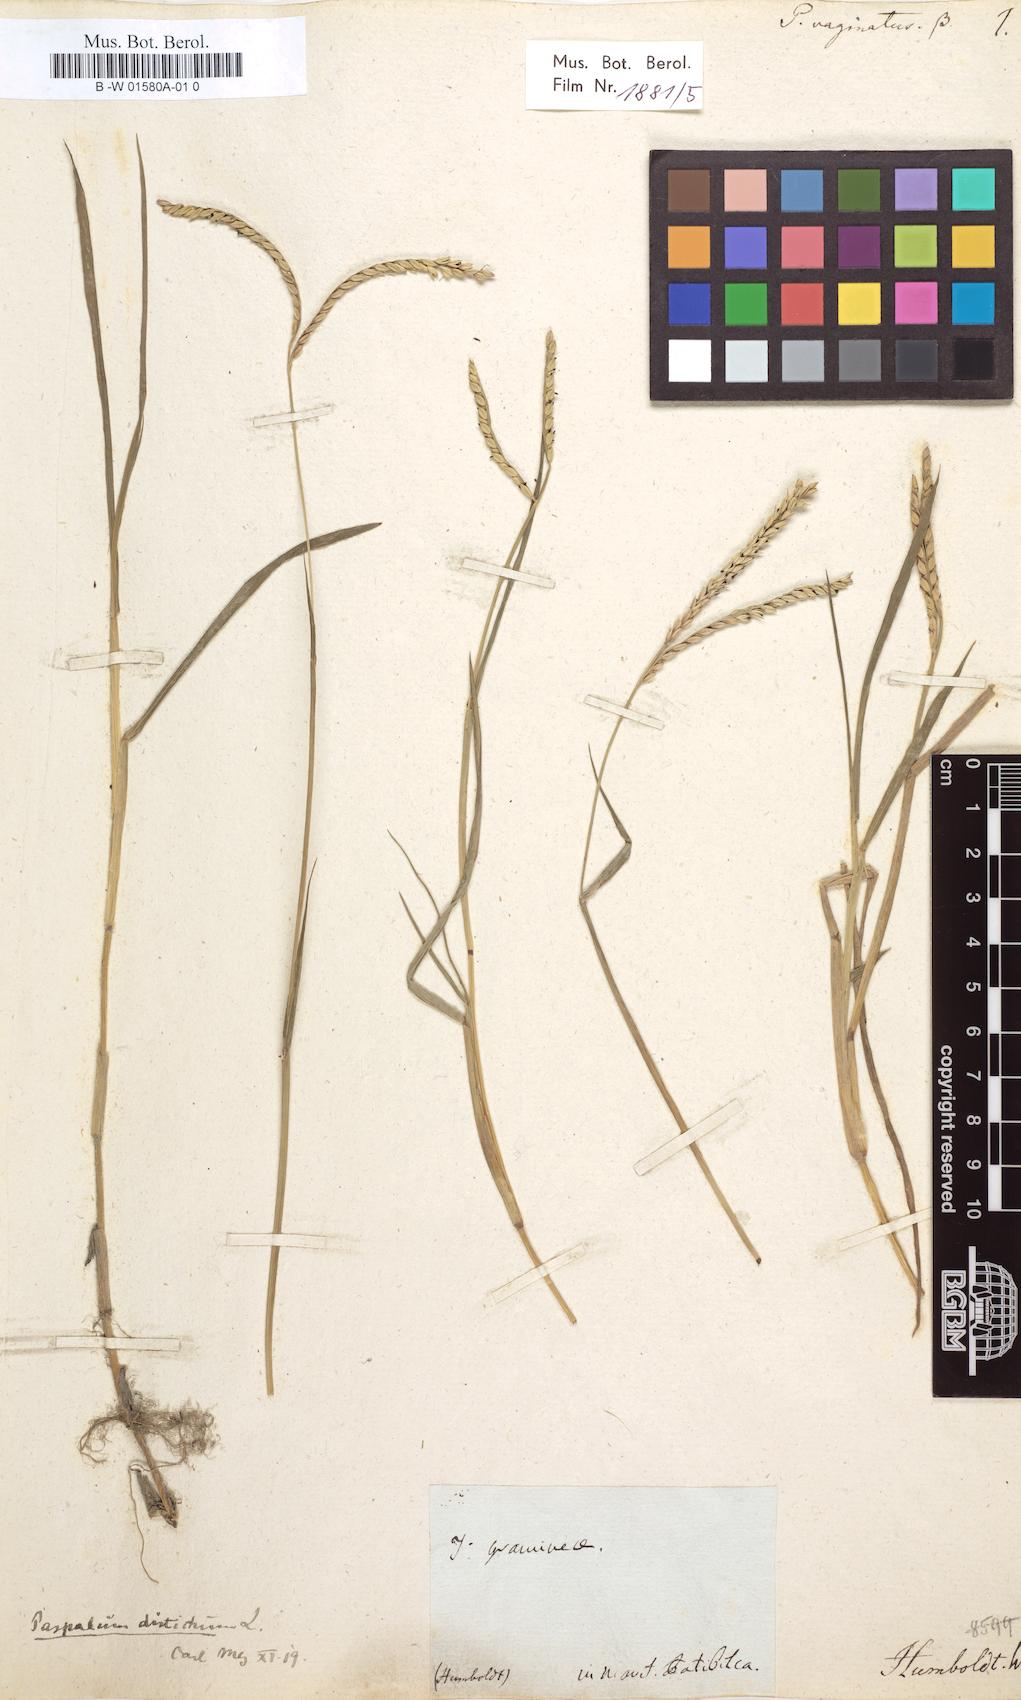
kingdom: Plantae
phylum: Tracheophyta
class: Liliopsida
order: Poales
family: Poaceae
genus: Paspalum
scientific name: Paspalum vaginatum
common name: Seashore paspalum
